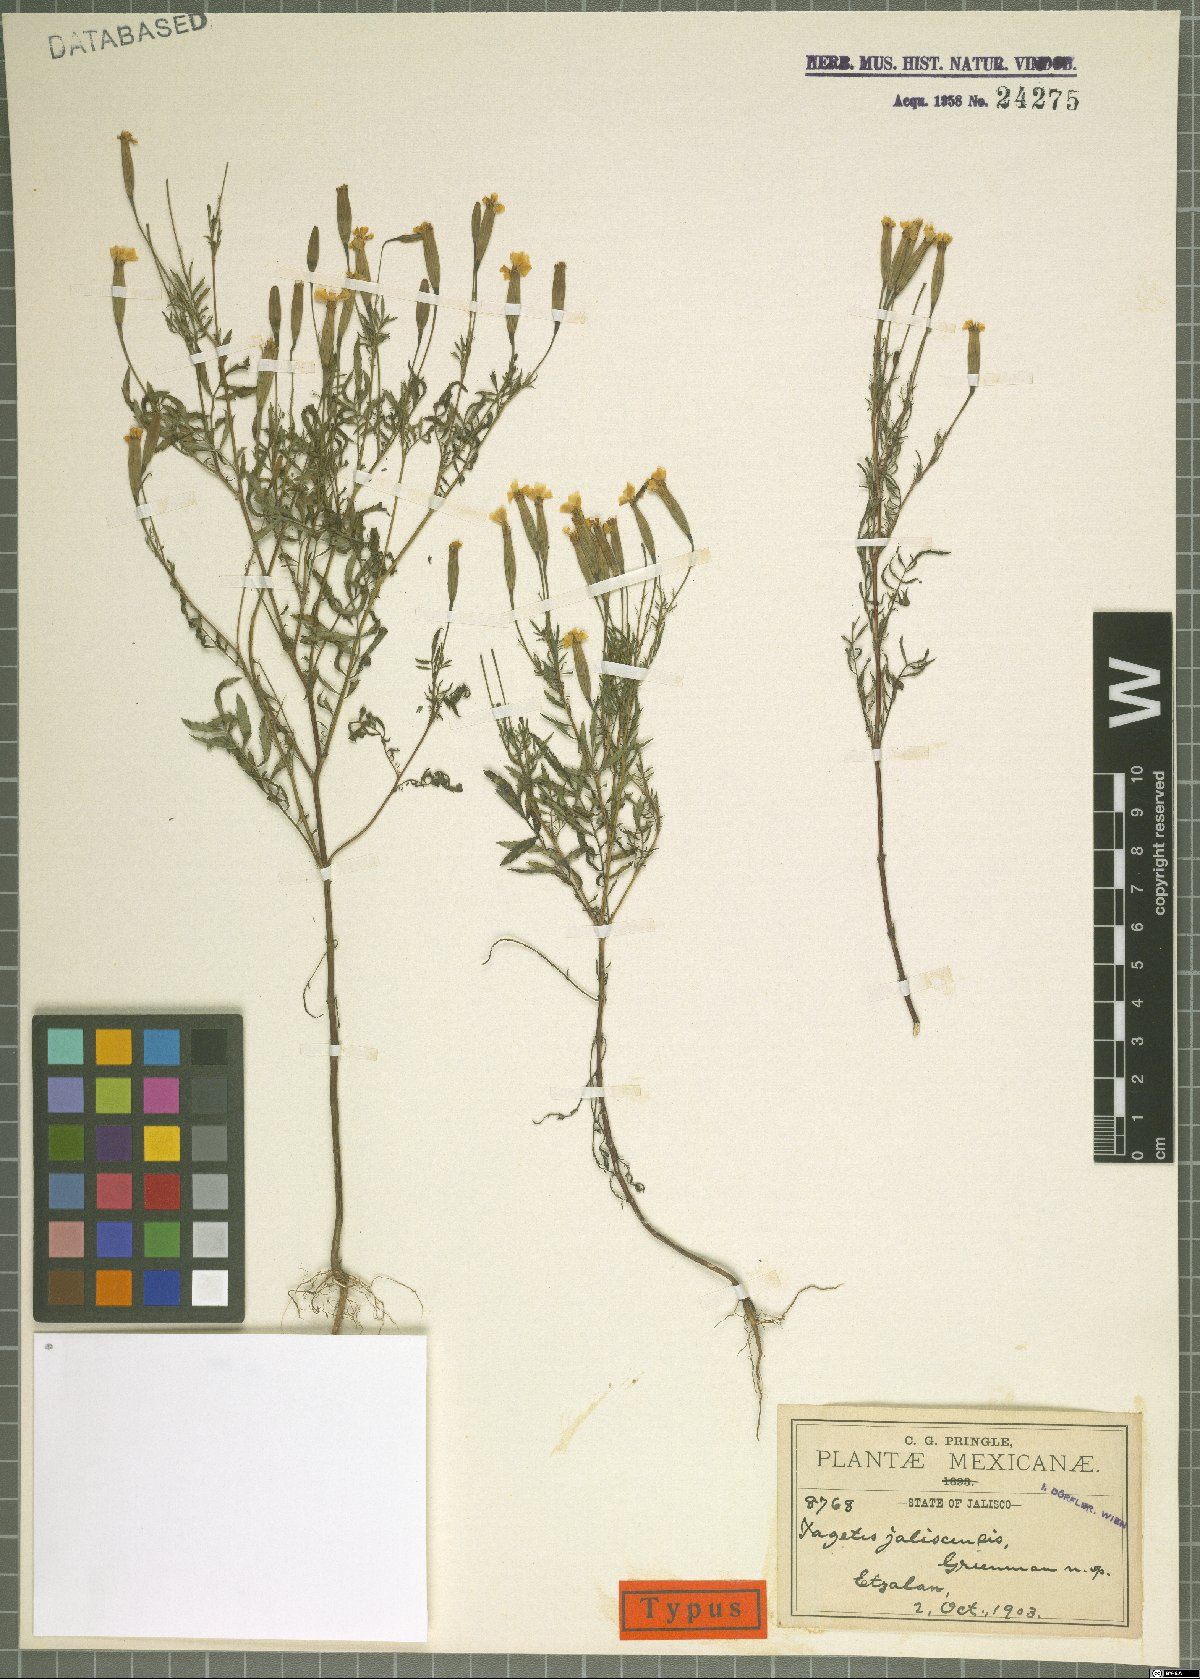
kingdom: Plantae
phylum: Tracheophyta
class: Magnoliopsida
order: Asterales
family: Asteraceae
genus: Tagetes
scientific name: Tagetes triradiata
